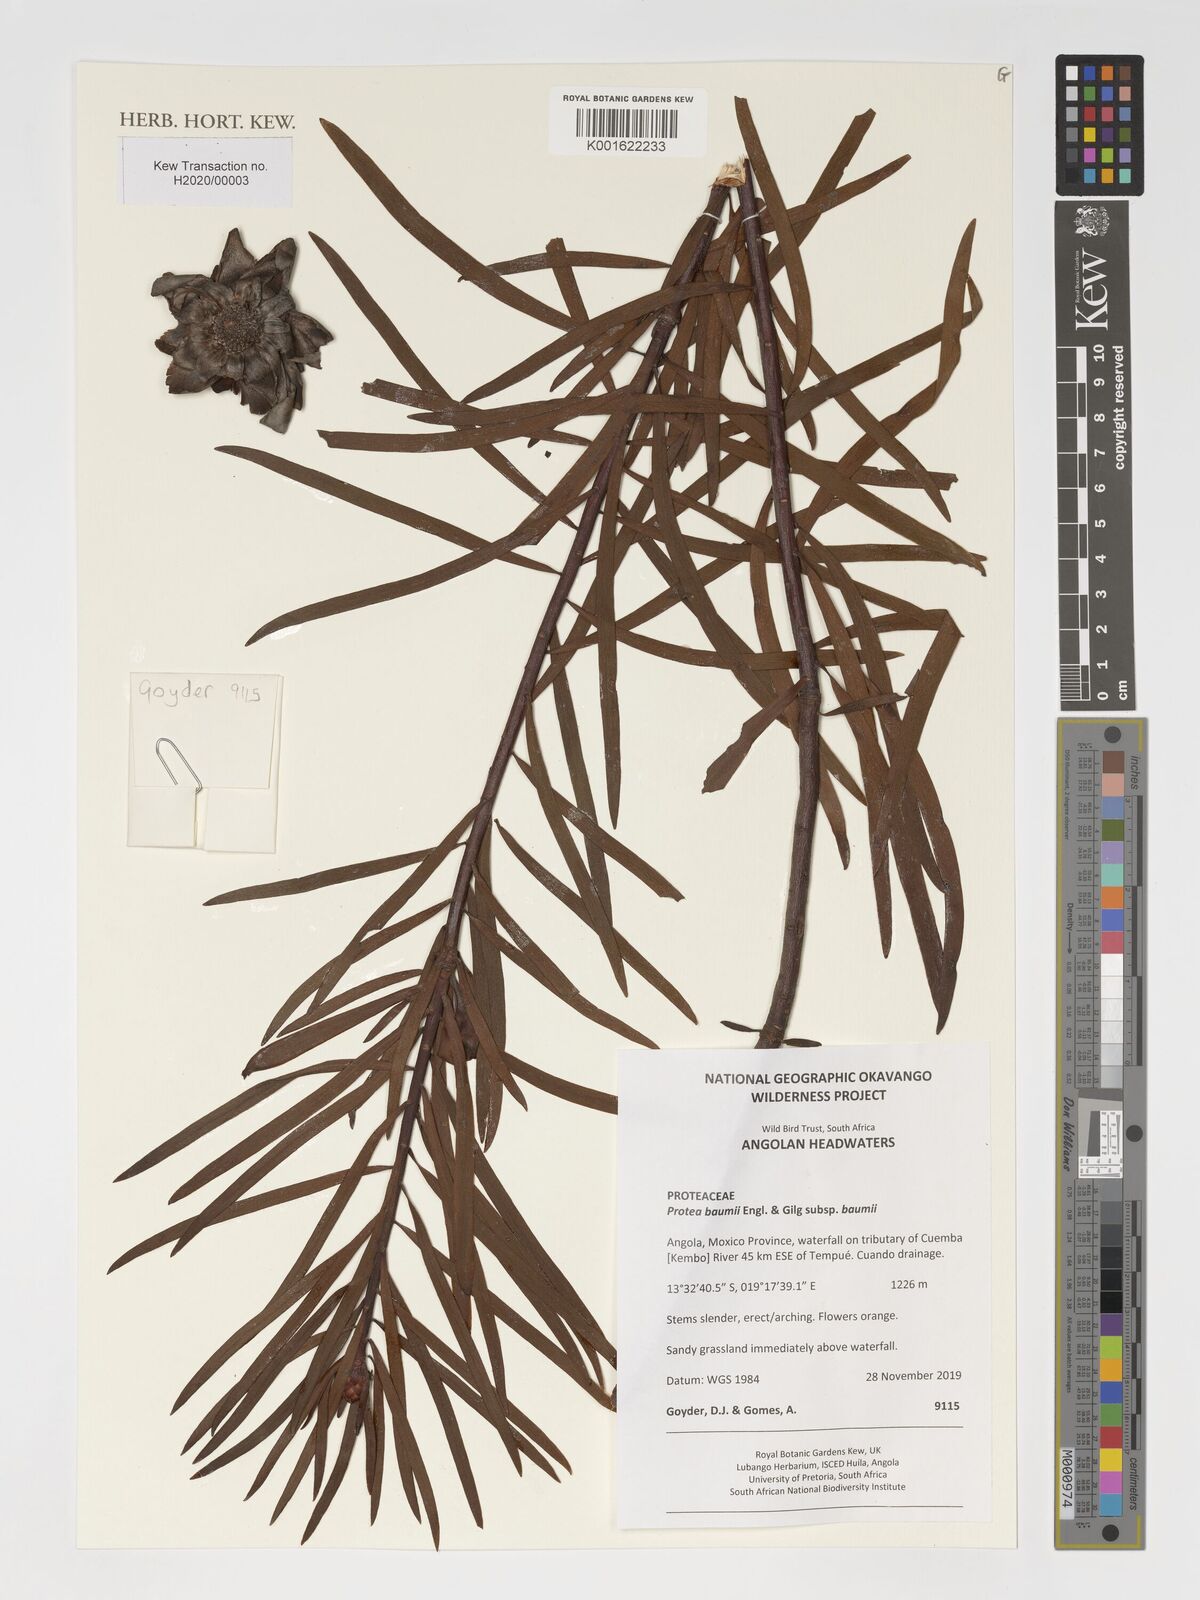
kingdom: Plantae
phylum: Tracheophyta
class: Magnoliopsida
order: Proteales
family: Proteaceae
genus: Protea
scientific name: Protea baumii
